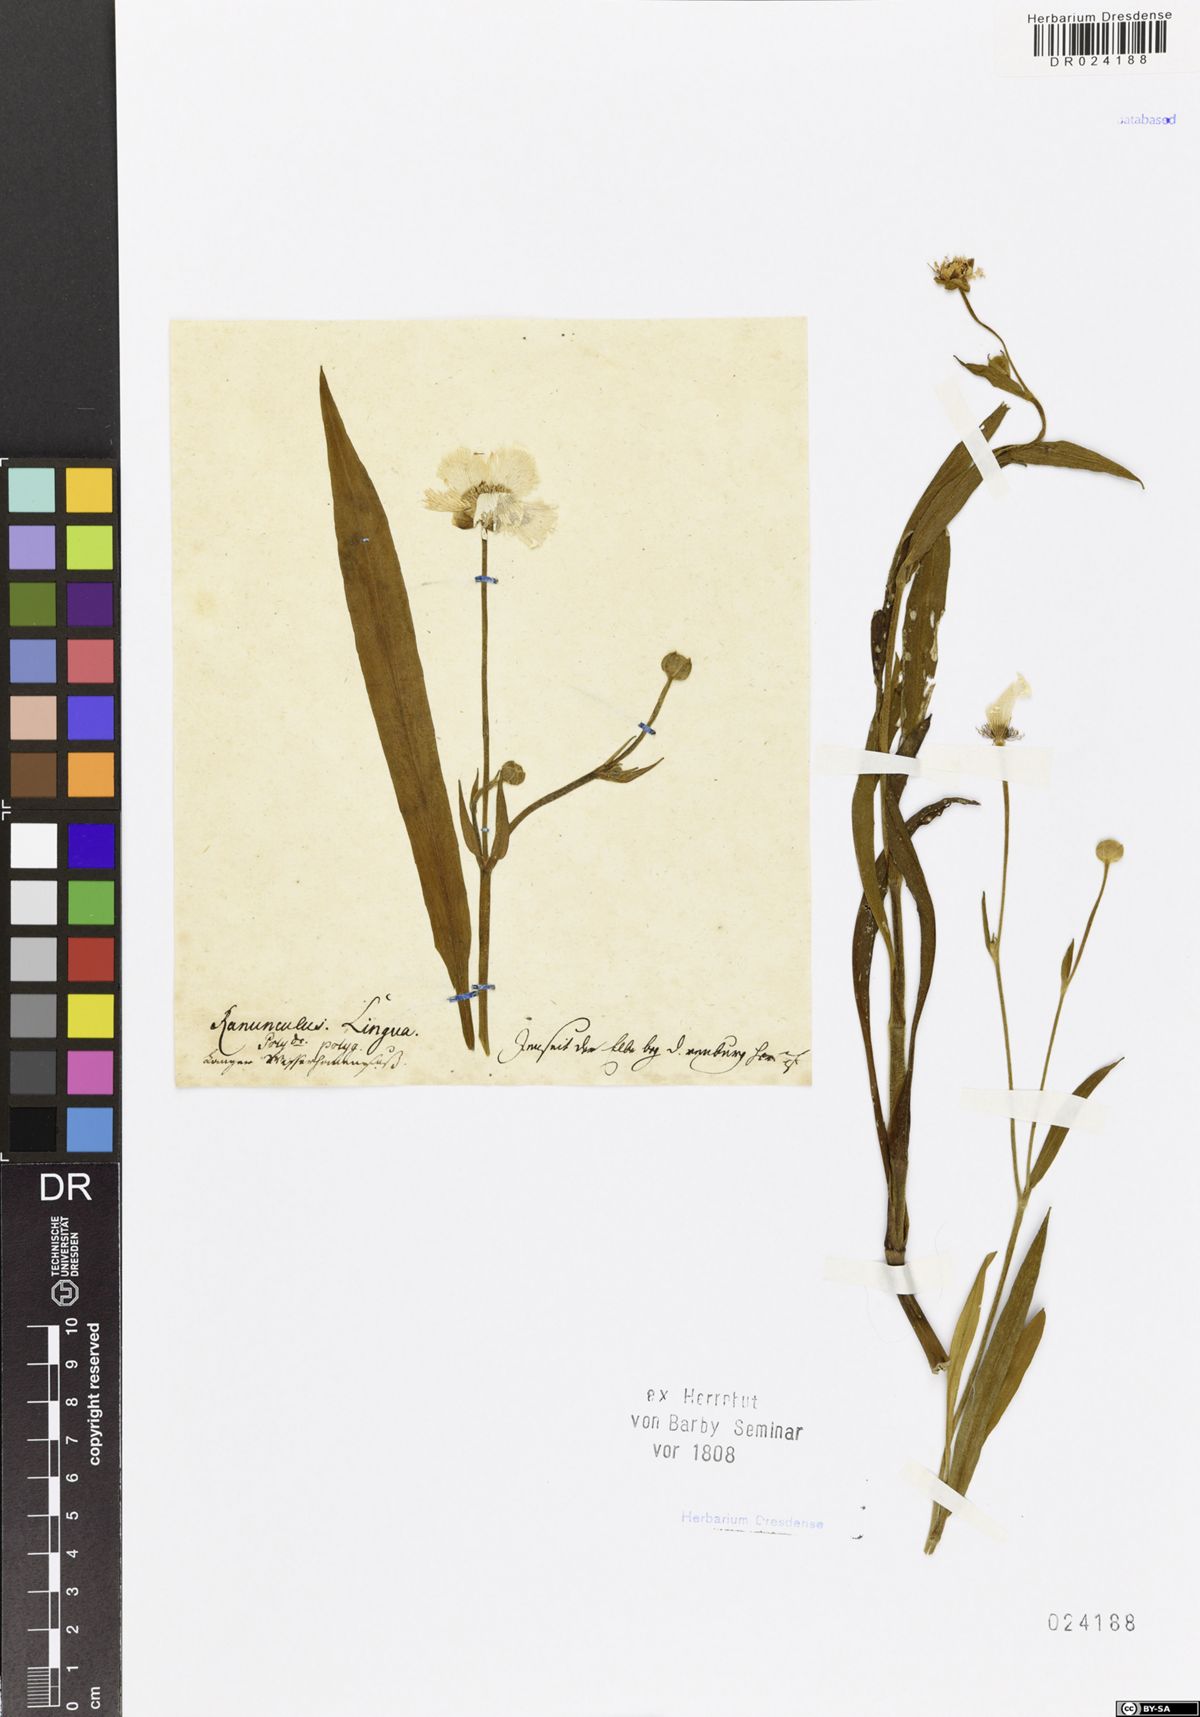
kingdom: Plantae
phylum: Tracheophyta
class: Magnoliopsida
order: Ranunculales
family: Ranunculaceae
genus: Ranunculus
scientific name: Ranunculus lingua
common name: Greater spearwort
